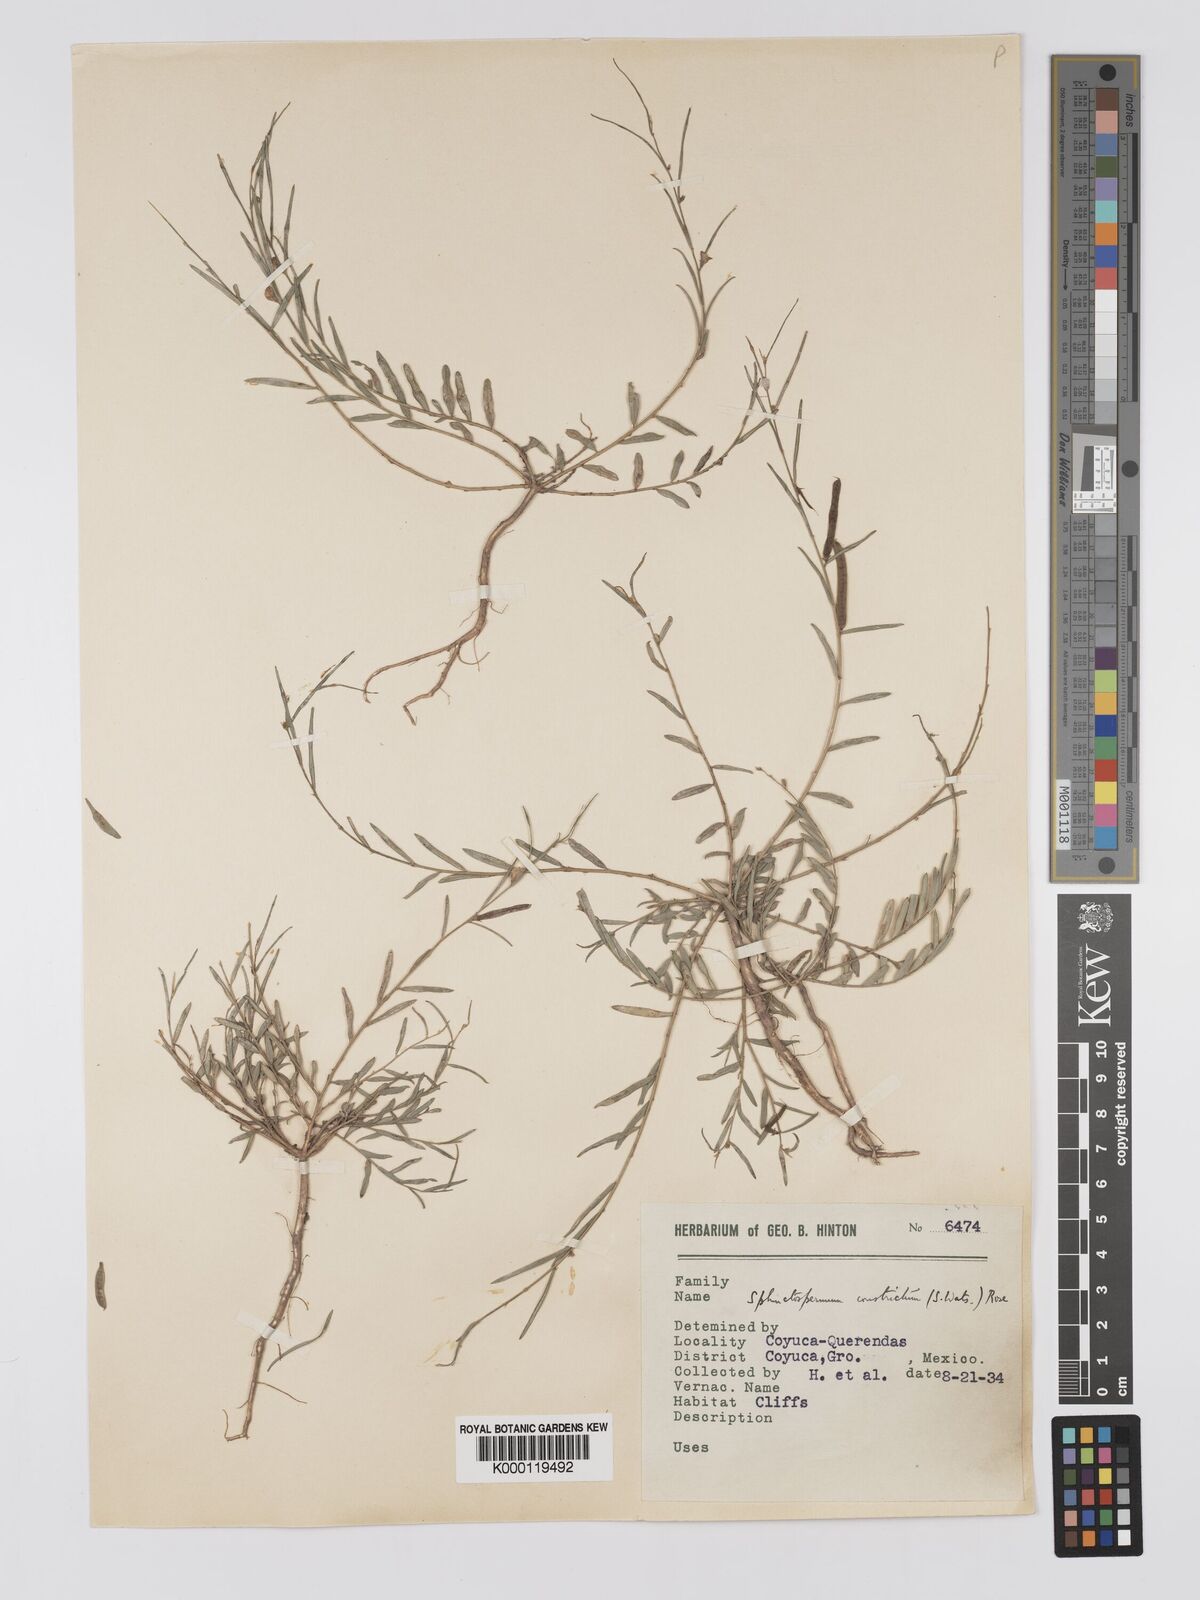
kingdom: Plantae
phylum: Tracheophyta
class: Magnoliopsida
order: Fabales
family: Fabaceae
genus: Sphinctospermum
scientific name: Sphinctospermum constrictum
